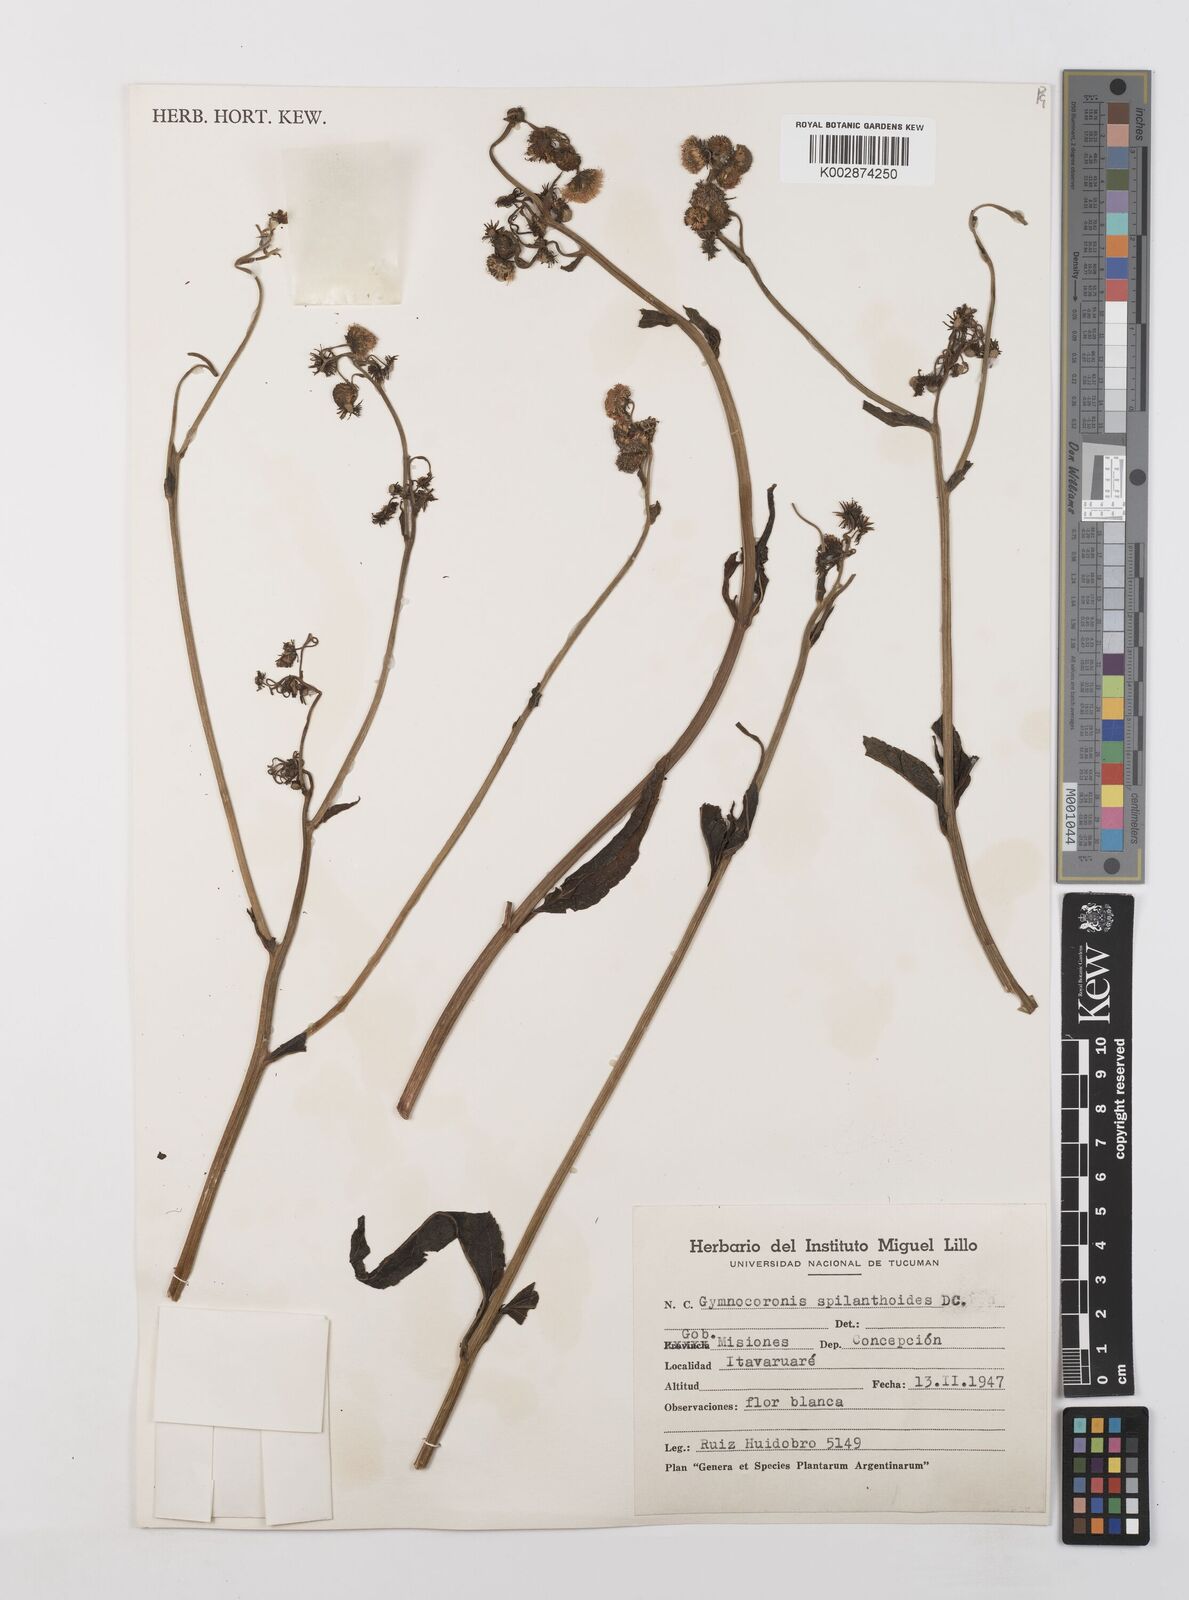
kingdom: Plantae
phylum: Tracheophyta
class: Magnoliopsida
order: Asterales
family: Asteraceae
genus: Gymnocoronis
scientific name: Gymnocoronis spilanthoides
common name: Senegal teaplant
